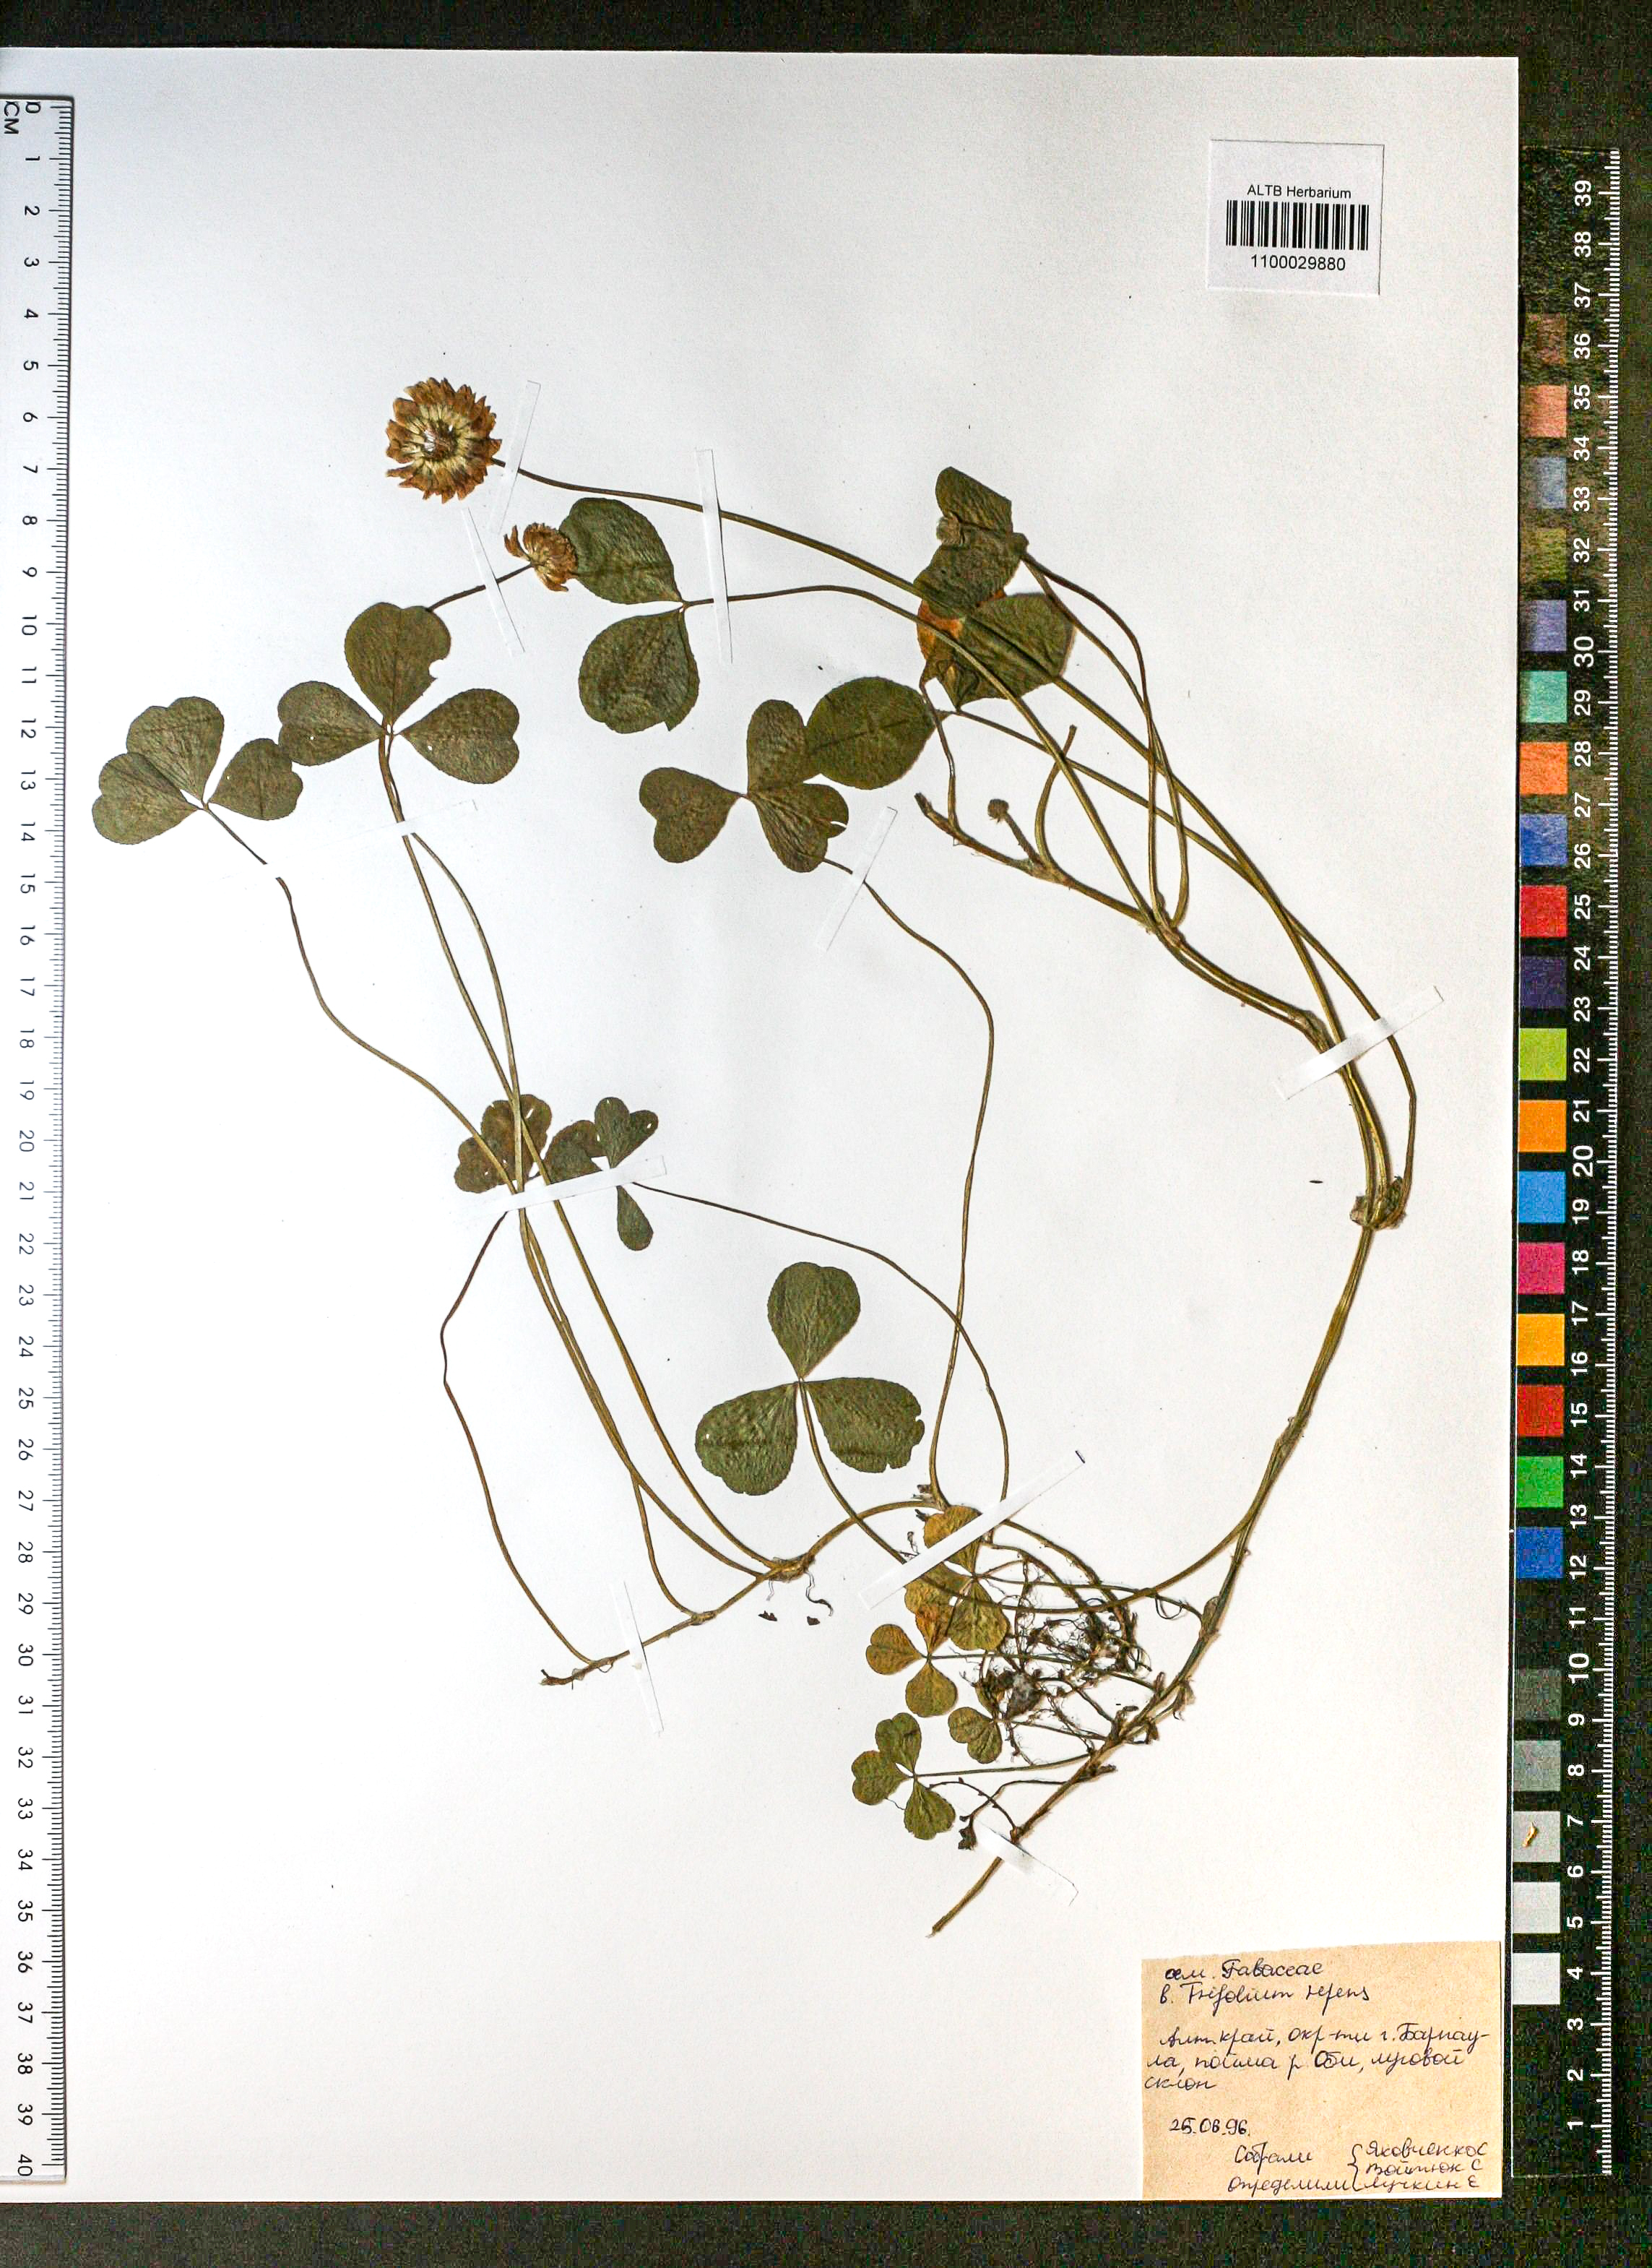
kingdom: Plantae
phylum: Tracheophyta
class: Magnoliopsida
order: Fabales
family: Fabaceae
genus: Trifolium
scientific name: Trifolium repens
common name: White clover
